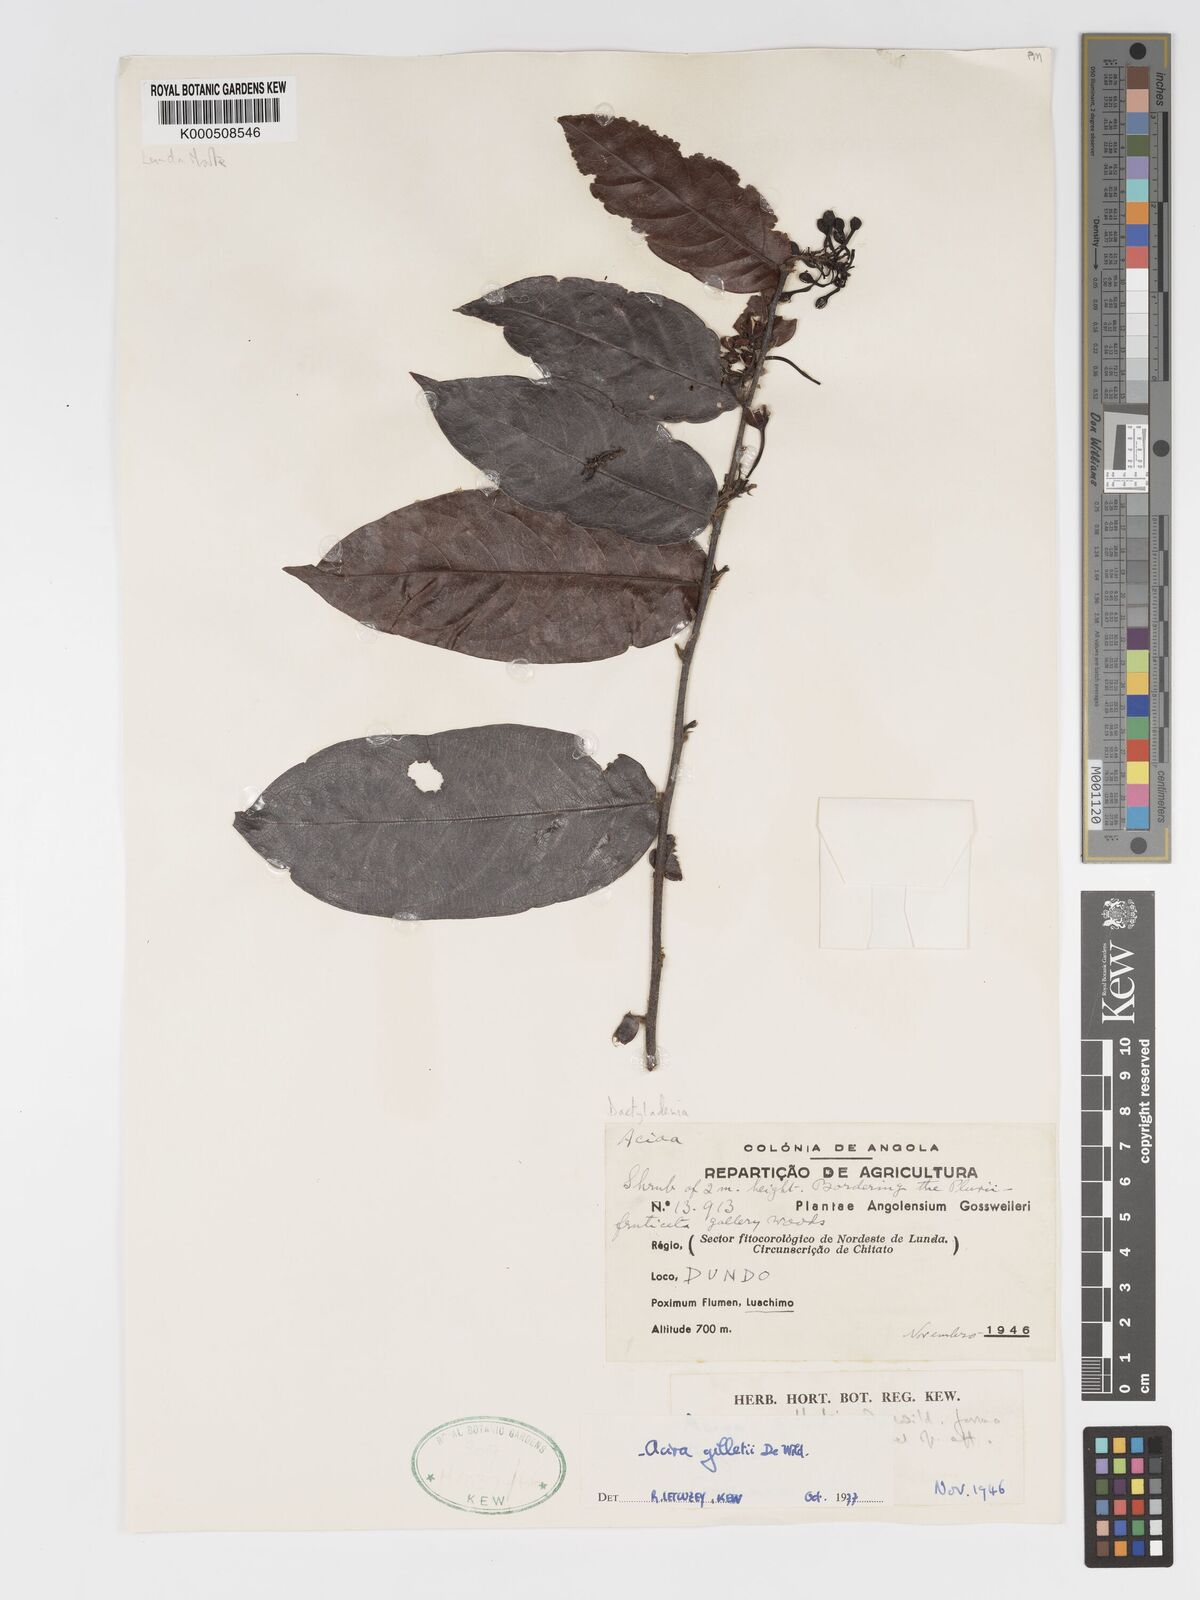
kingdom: Plantae
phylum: Tracheophyta
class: Magnoliopsida
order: Malpighiales
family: Chrysobalanaceae
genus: Dactyladenia
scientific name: Dactyladenia gilletii
